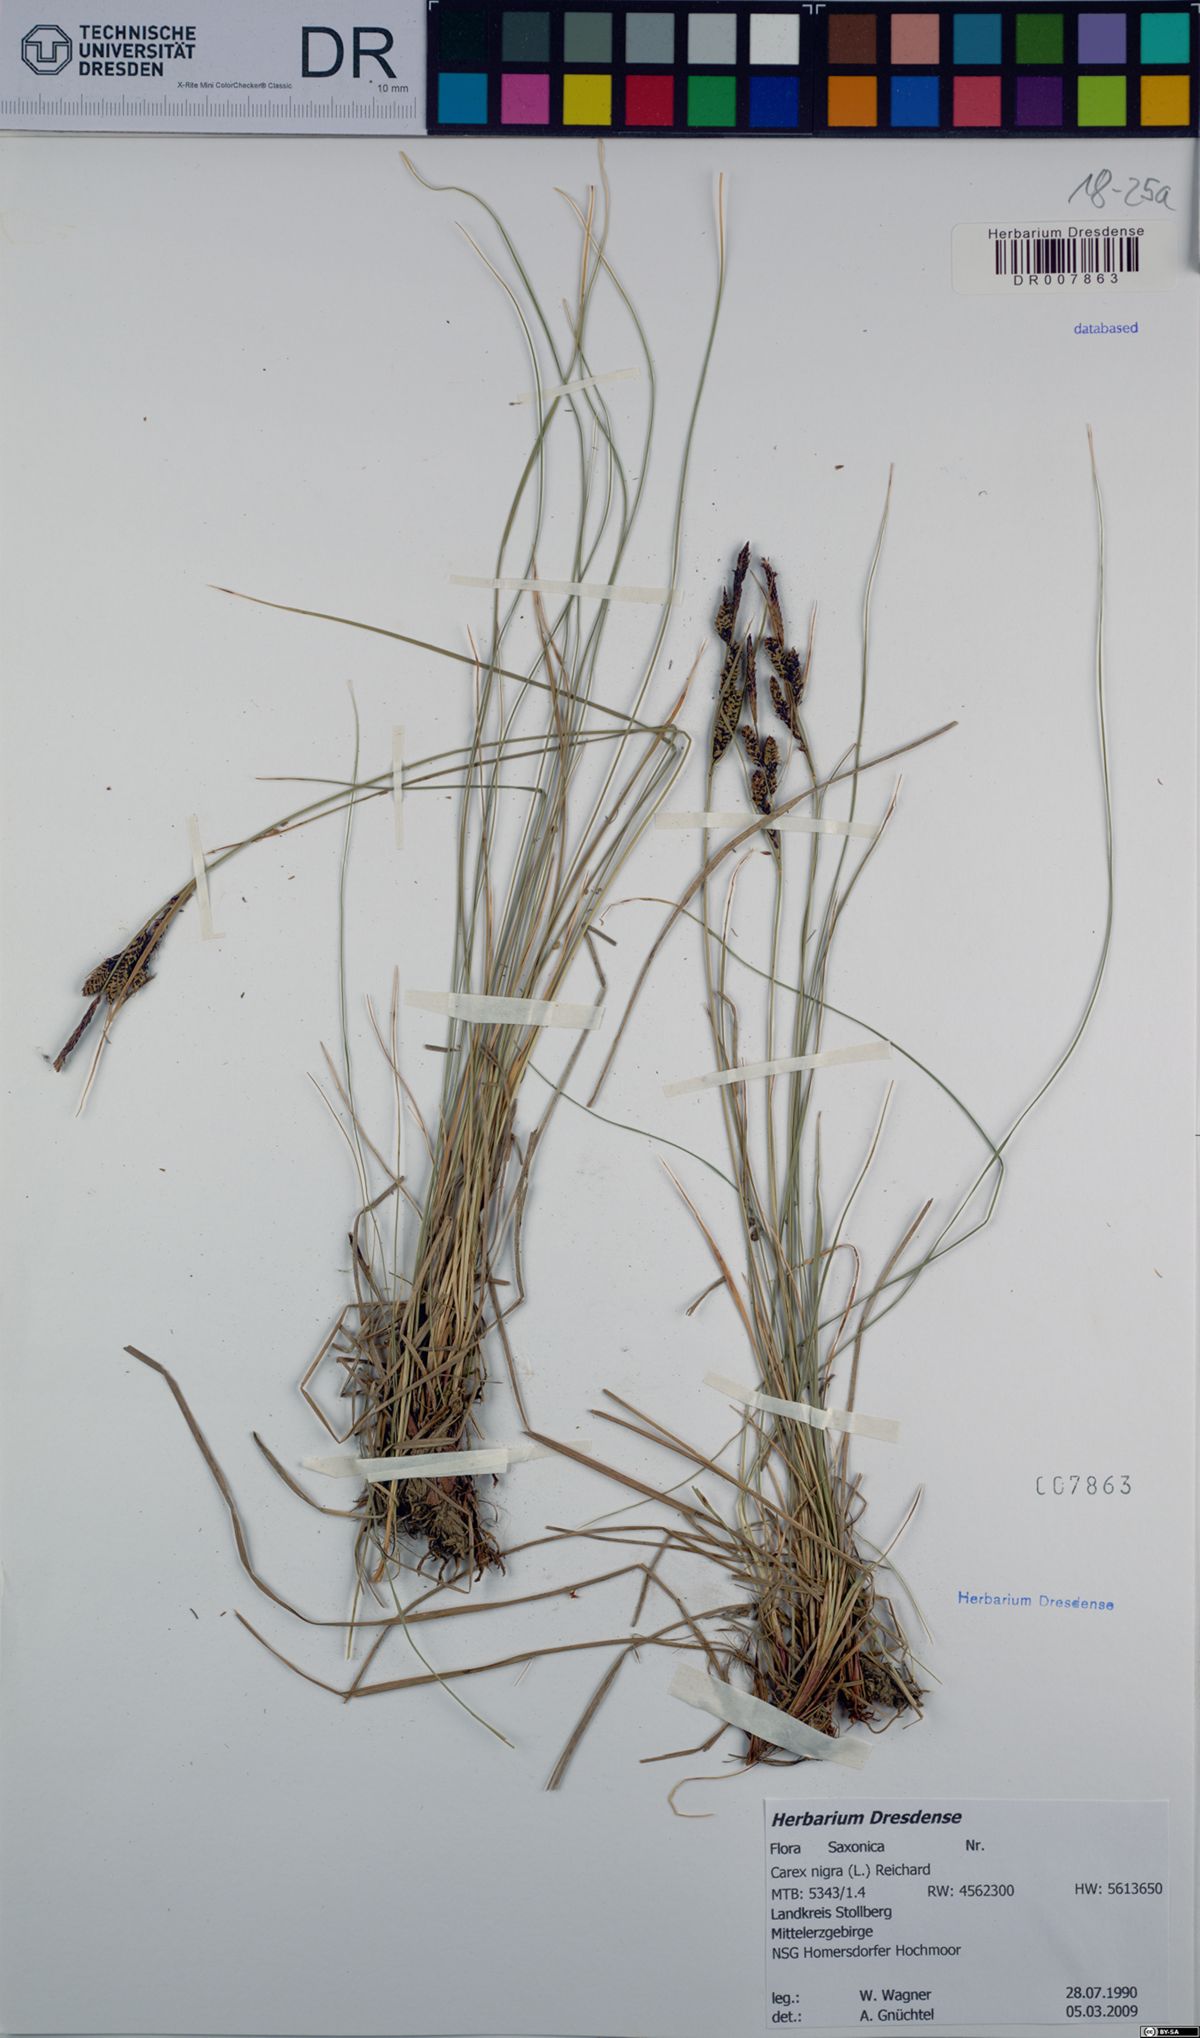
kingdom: Plantae
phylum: Tracheophyta
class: Liliopsida
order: Poales
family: Cyperaceae
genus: Carex
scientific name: Carex nigra
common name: Common sedge
